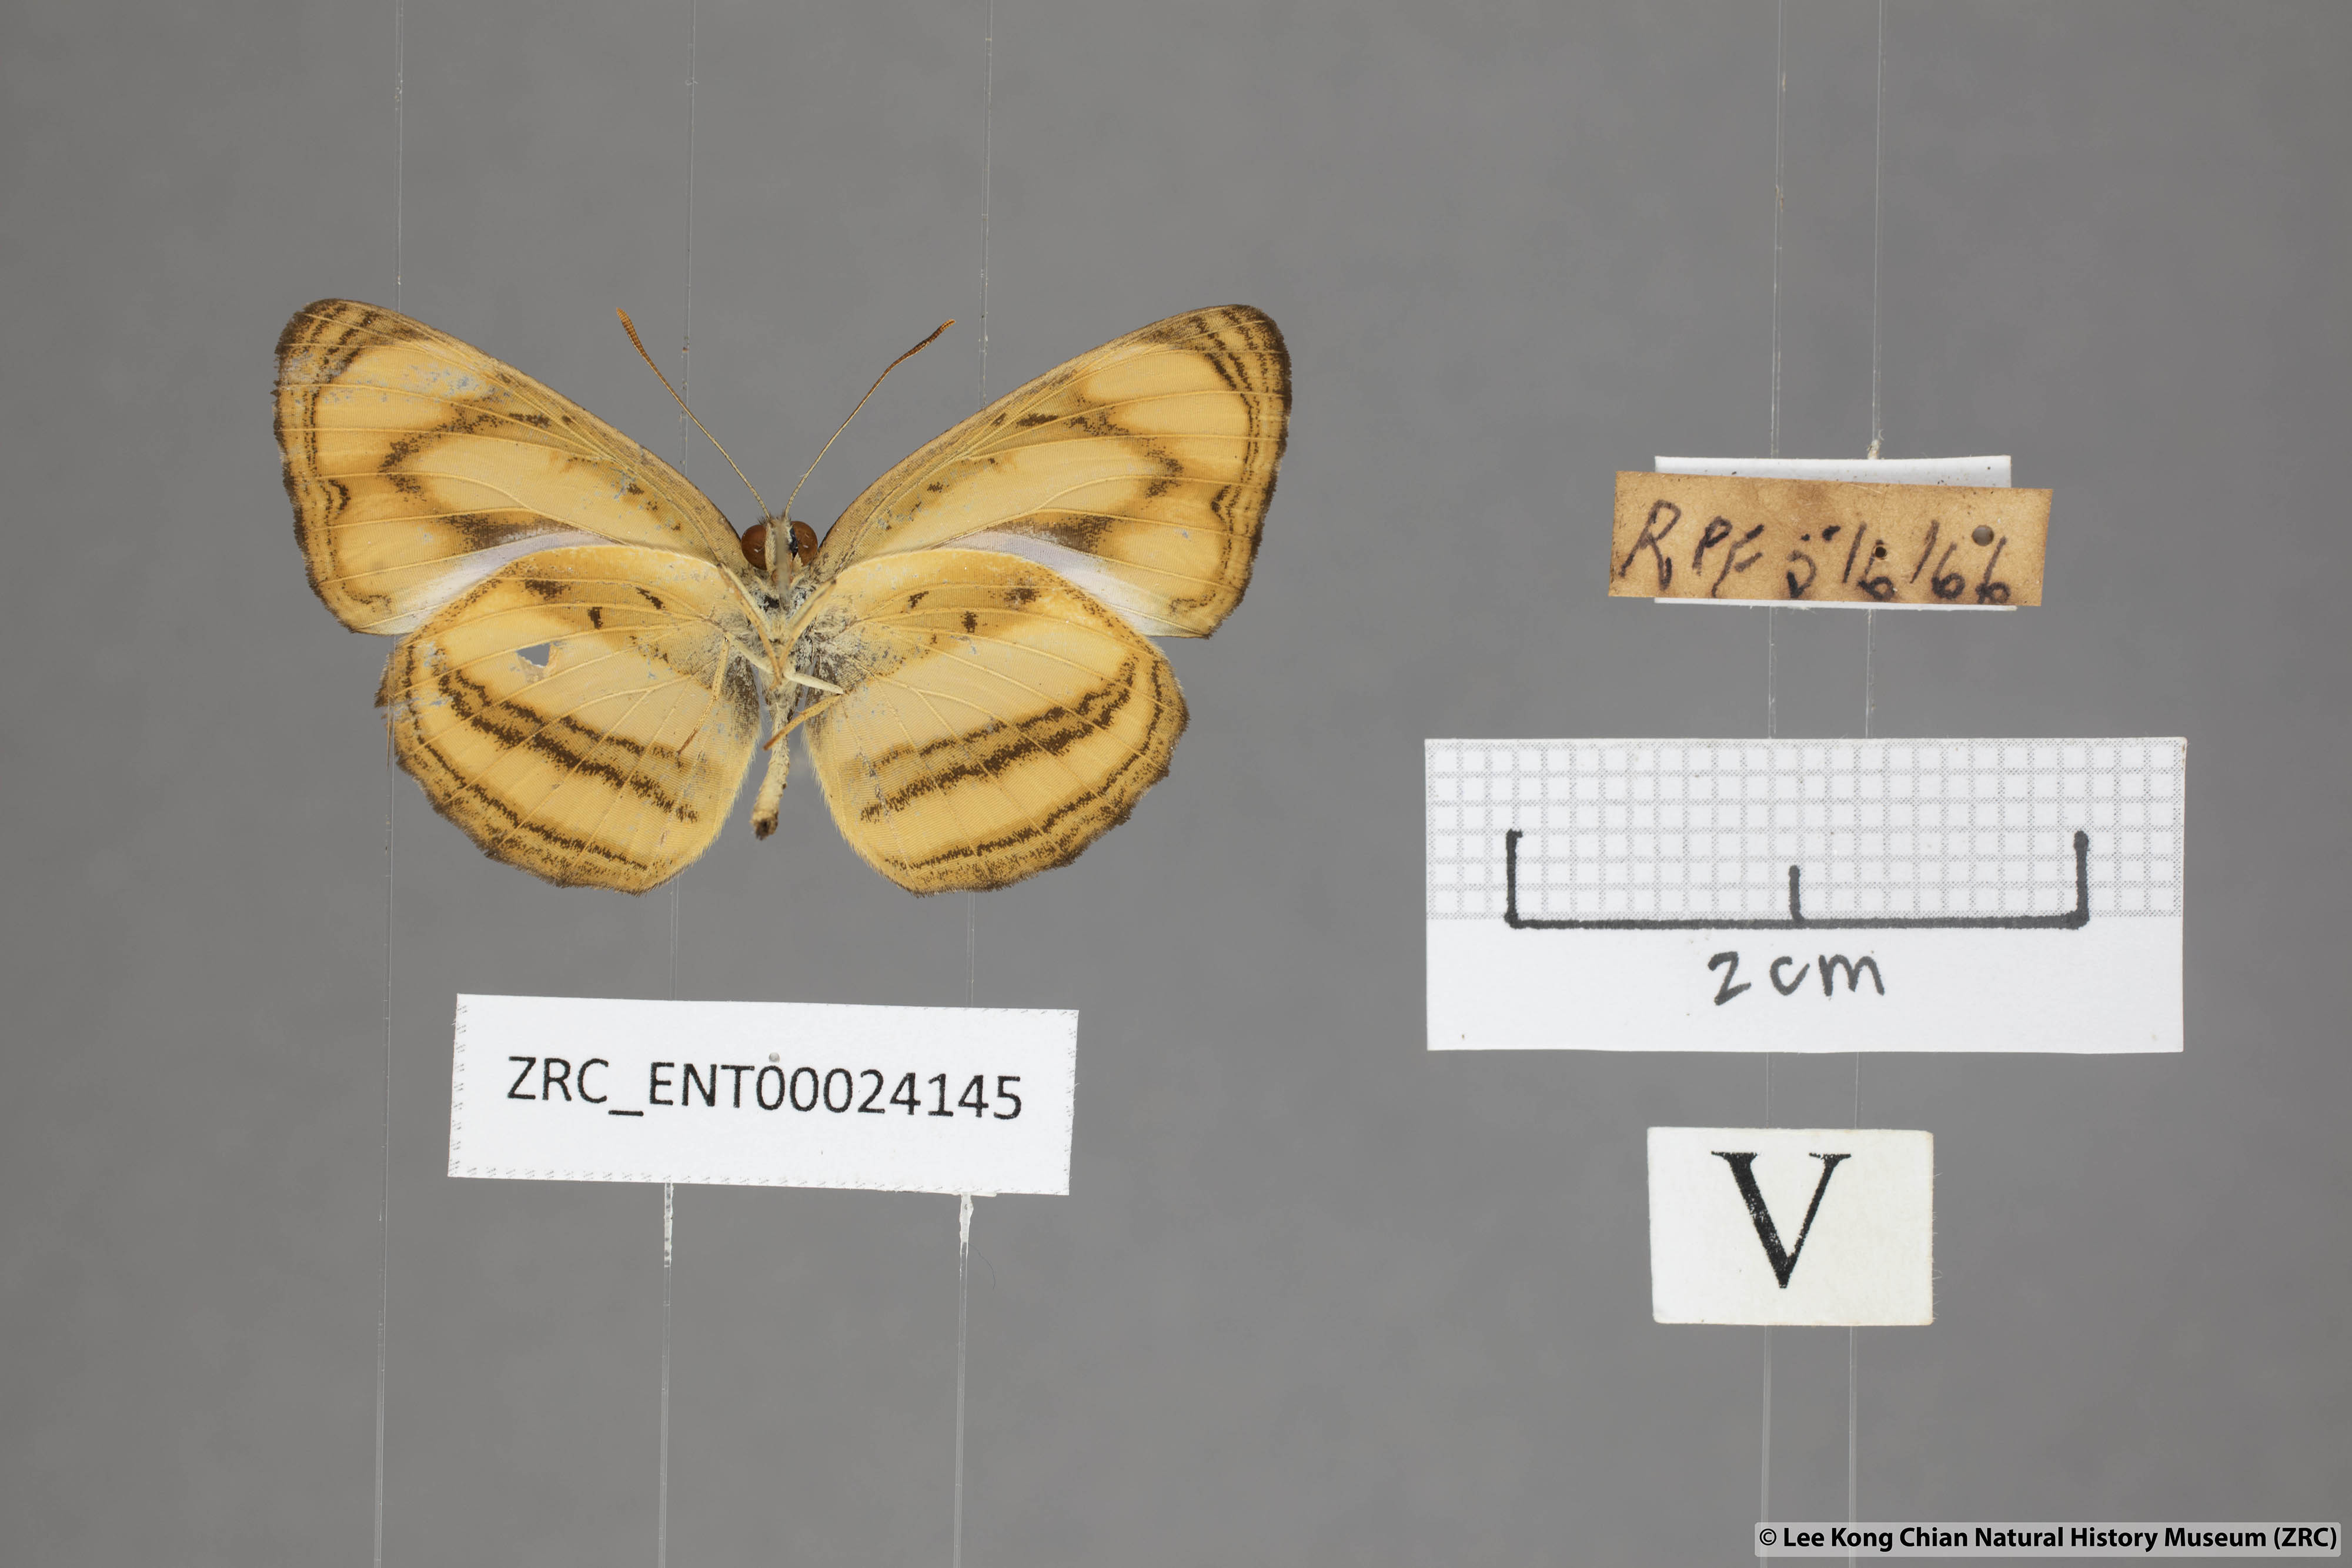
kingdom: Animalia
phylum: Arthropoda
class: Insecta
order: Lepidoptera
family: Nymphalidae
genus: Pantoporia
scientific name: Pantoporia paraka
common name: Perak lascar
